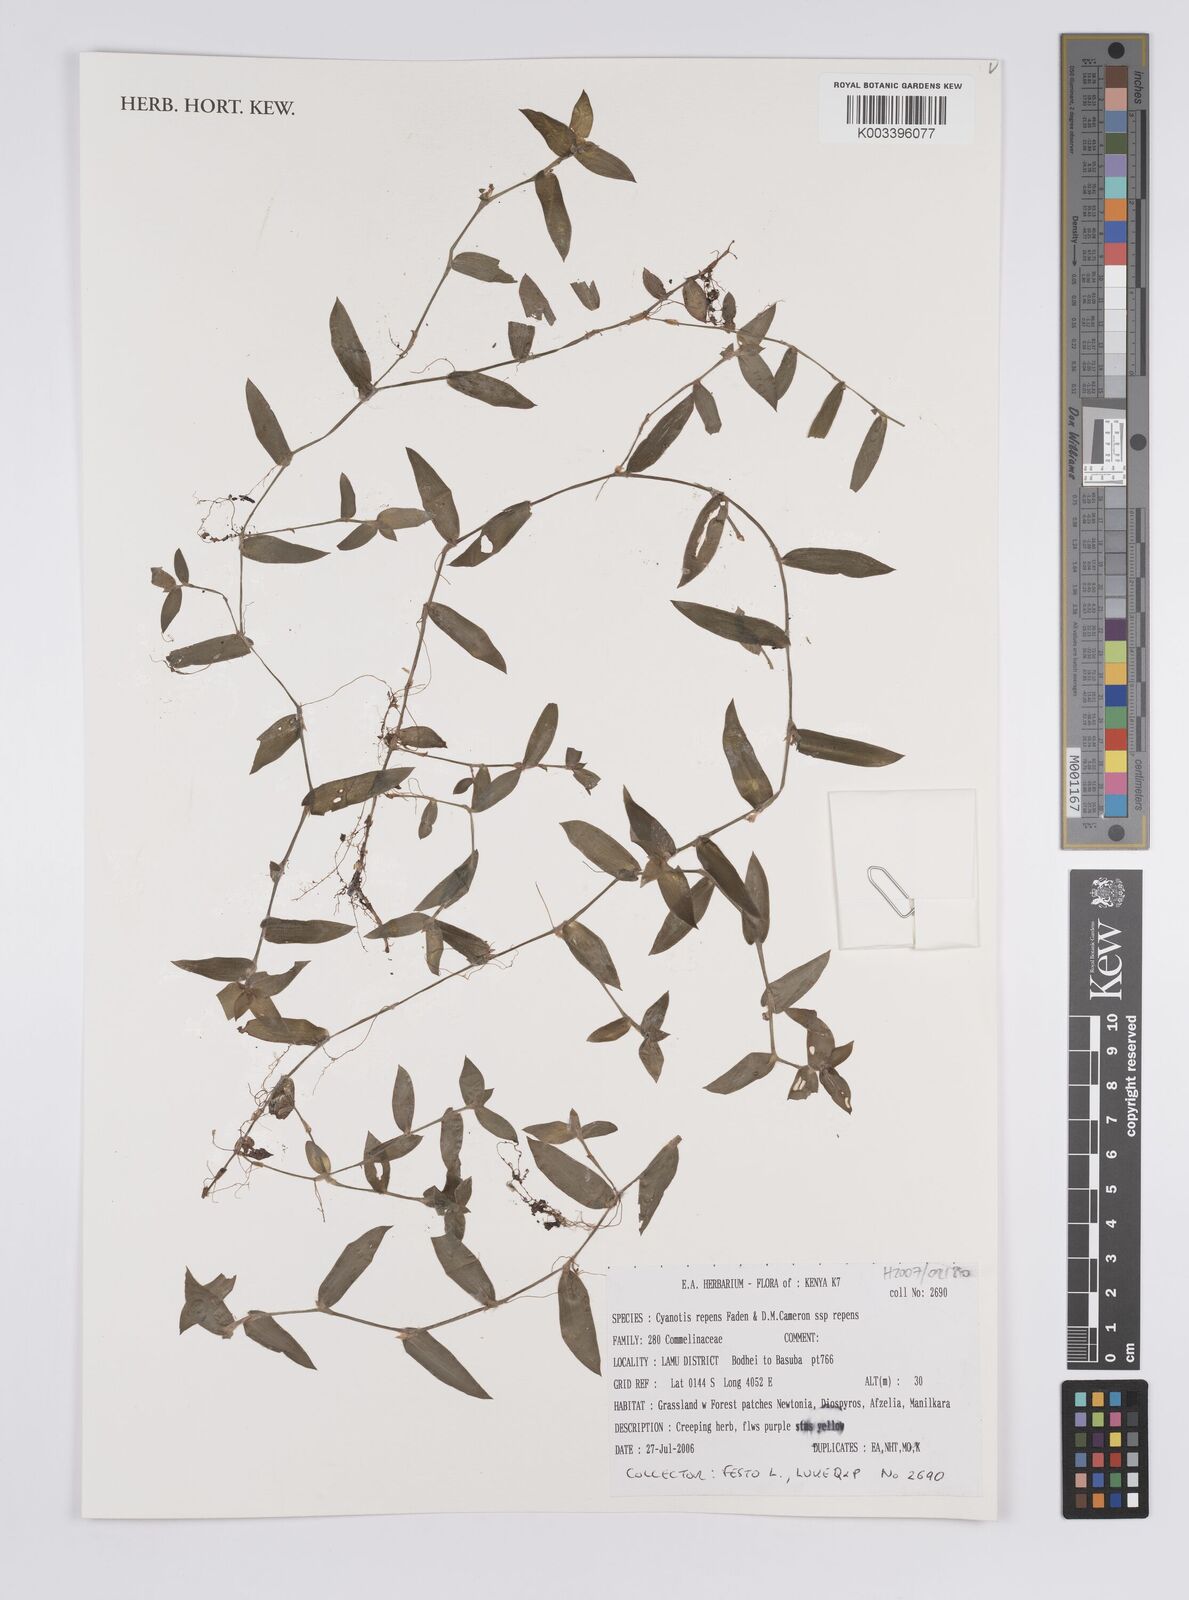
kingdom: Plantae
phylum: Tracheophyta
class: Liliopsida
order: Commelinales
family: Commelinaceae
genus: Cyanotis
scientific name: Cyanotis repens
